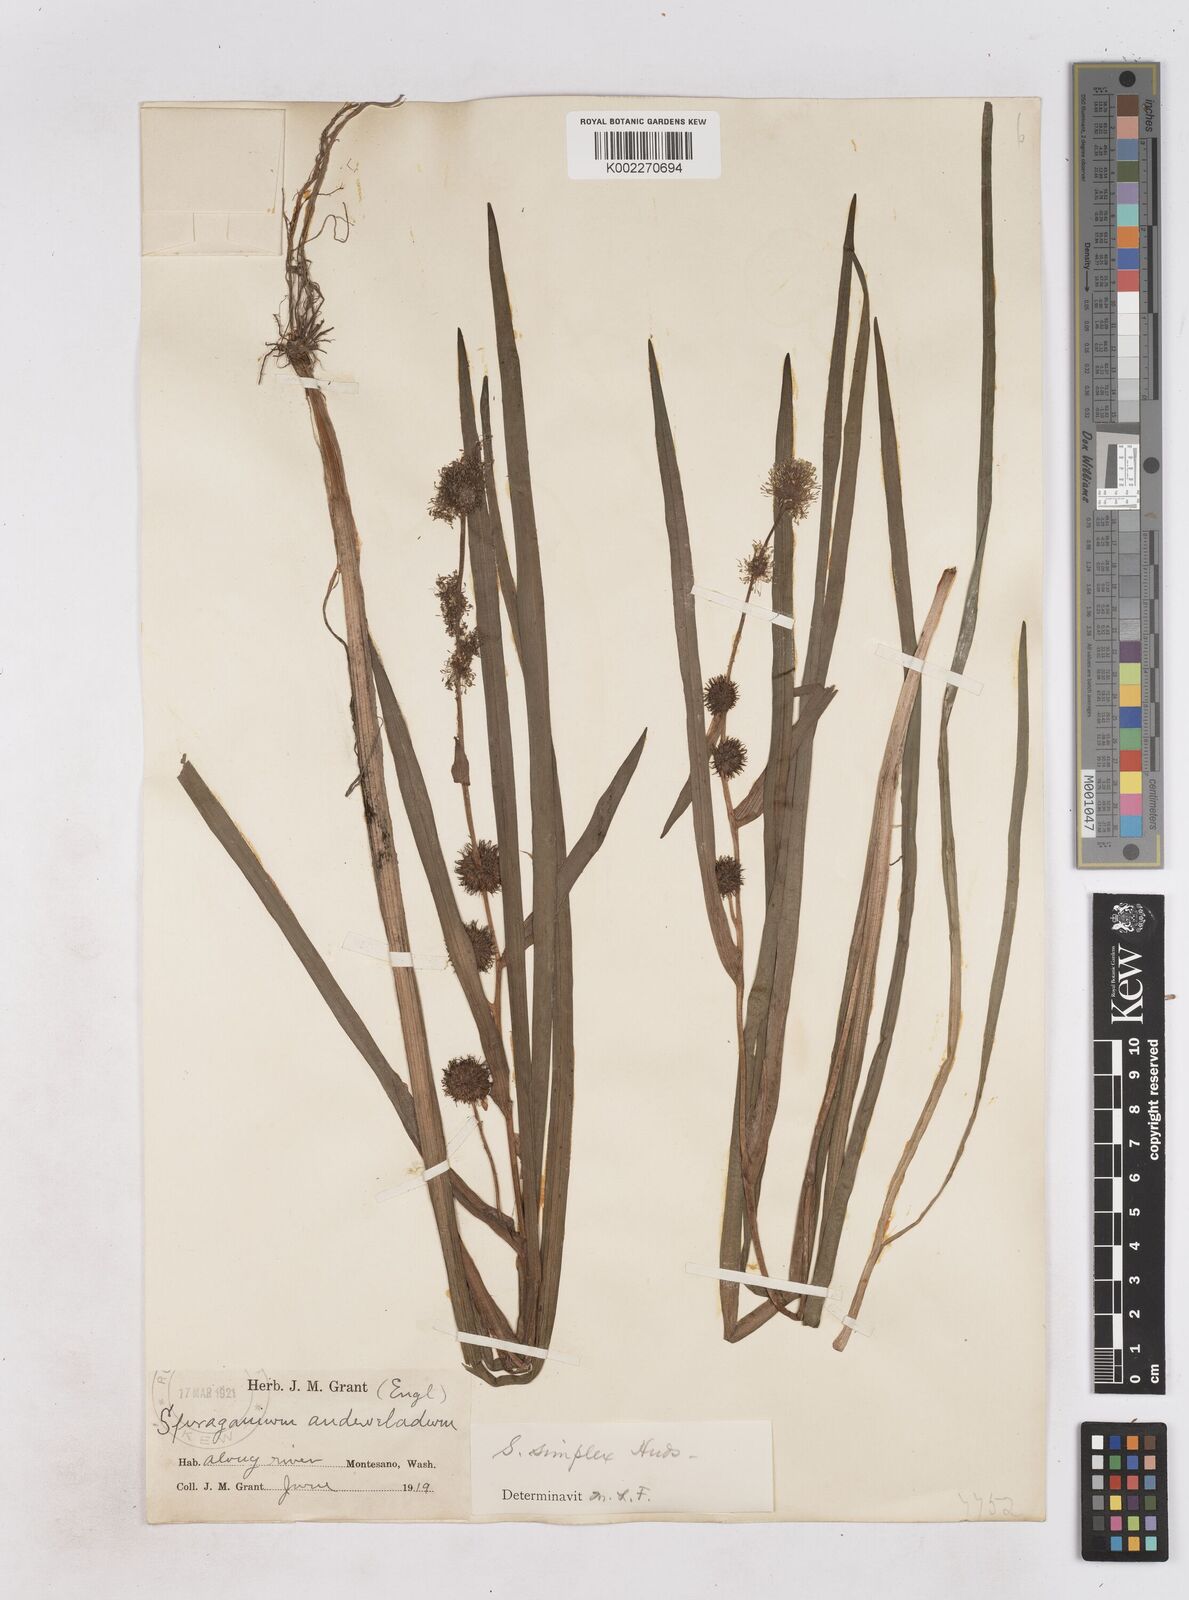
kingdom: Plantae
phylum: Tracheophyta
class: Liliopsida
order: Poales
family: Typhaceae
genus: Sparganium
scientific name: Sparganium emersum
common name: Unbranched bur-reed
